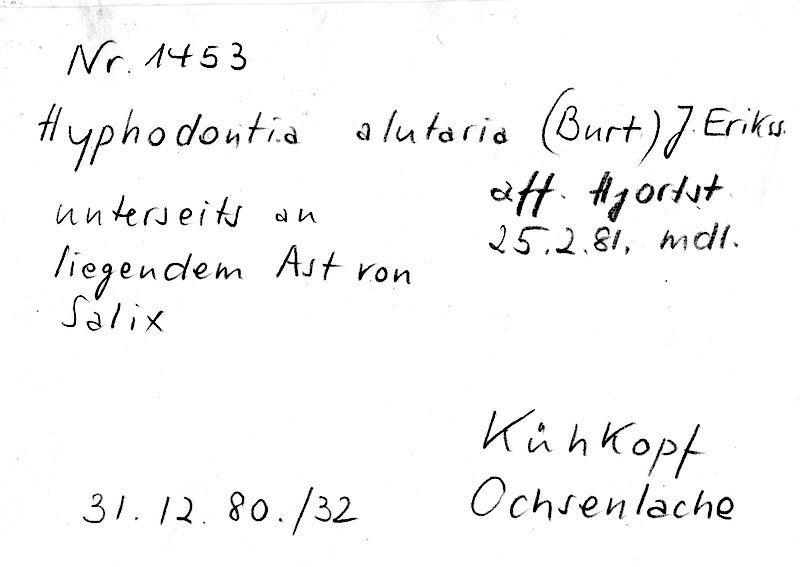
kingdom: Plantae
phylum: Tracheophyta
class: Magnoliopsida
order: Malpighiales
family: Salicaceae
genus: Salix
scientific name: Salix
